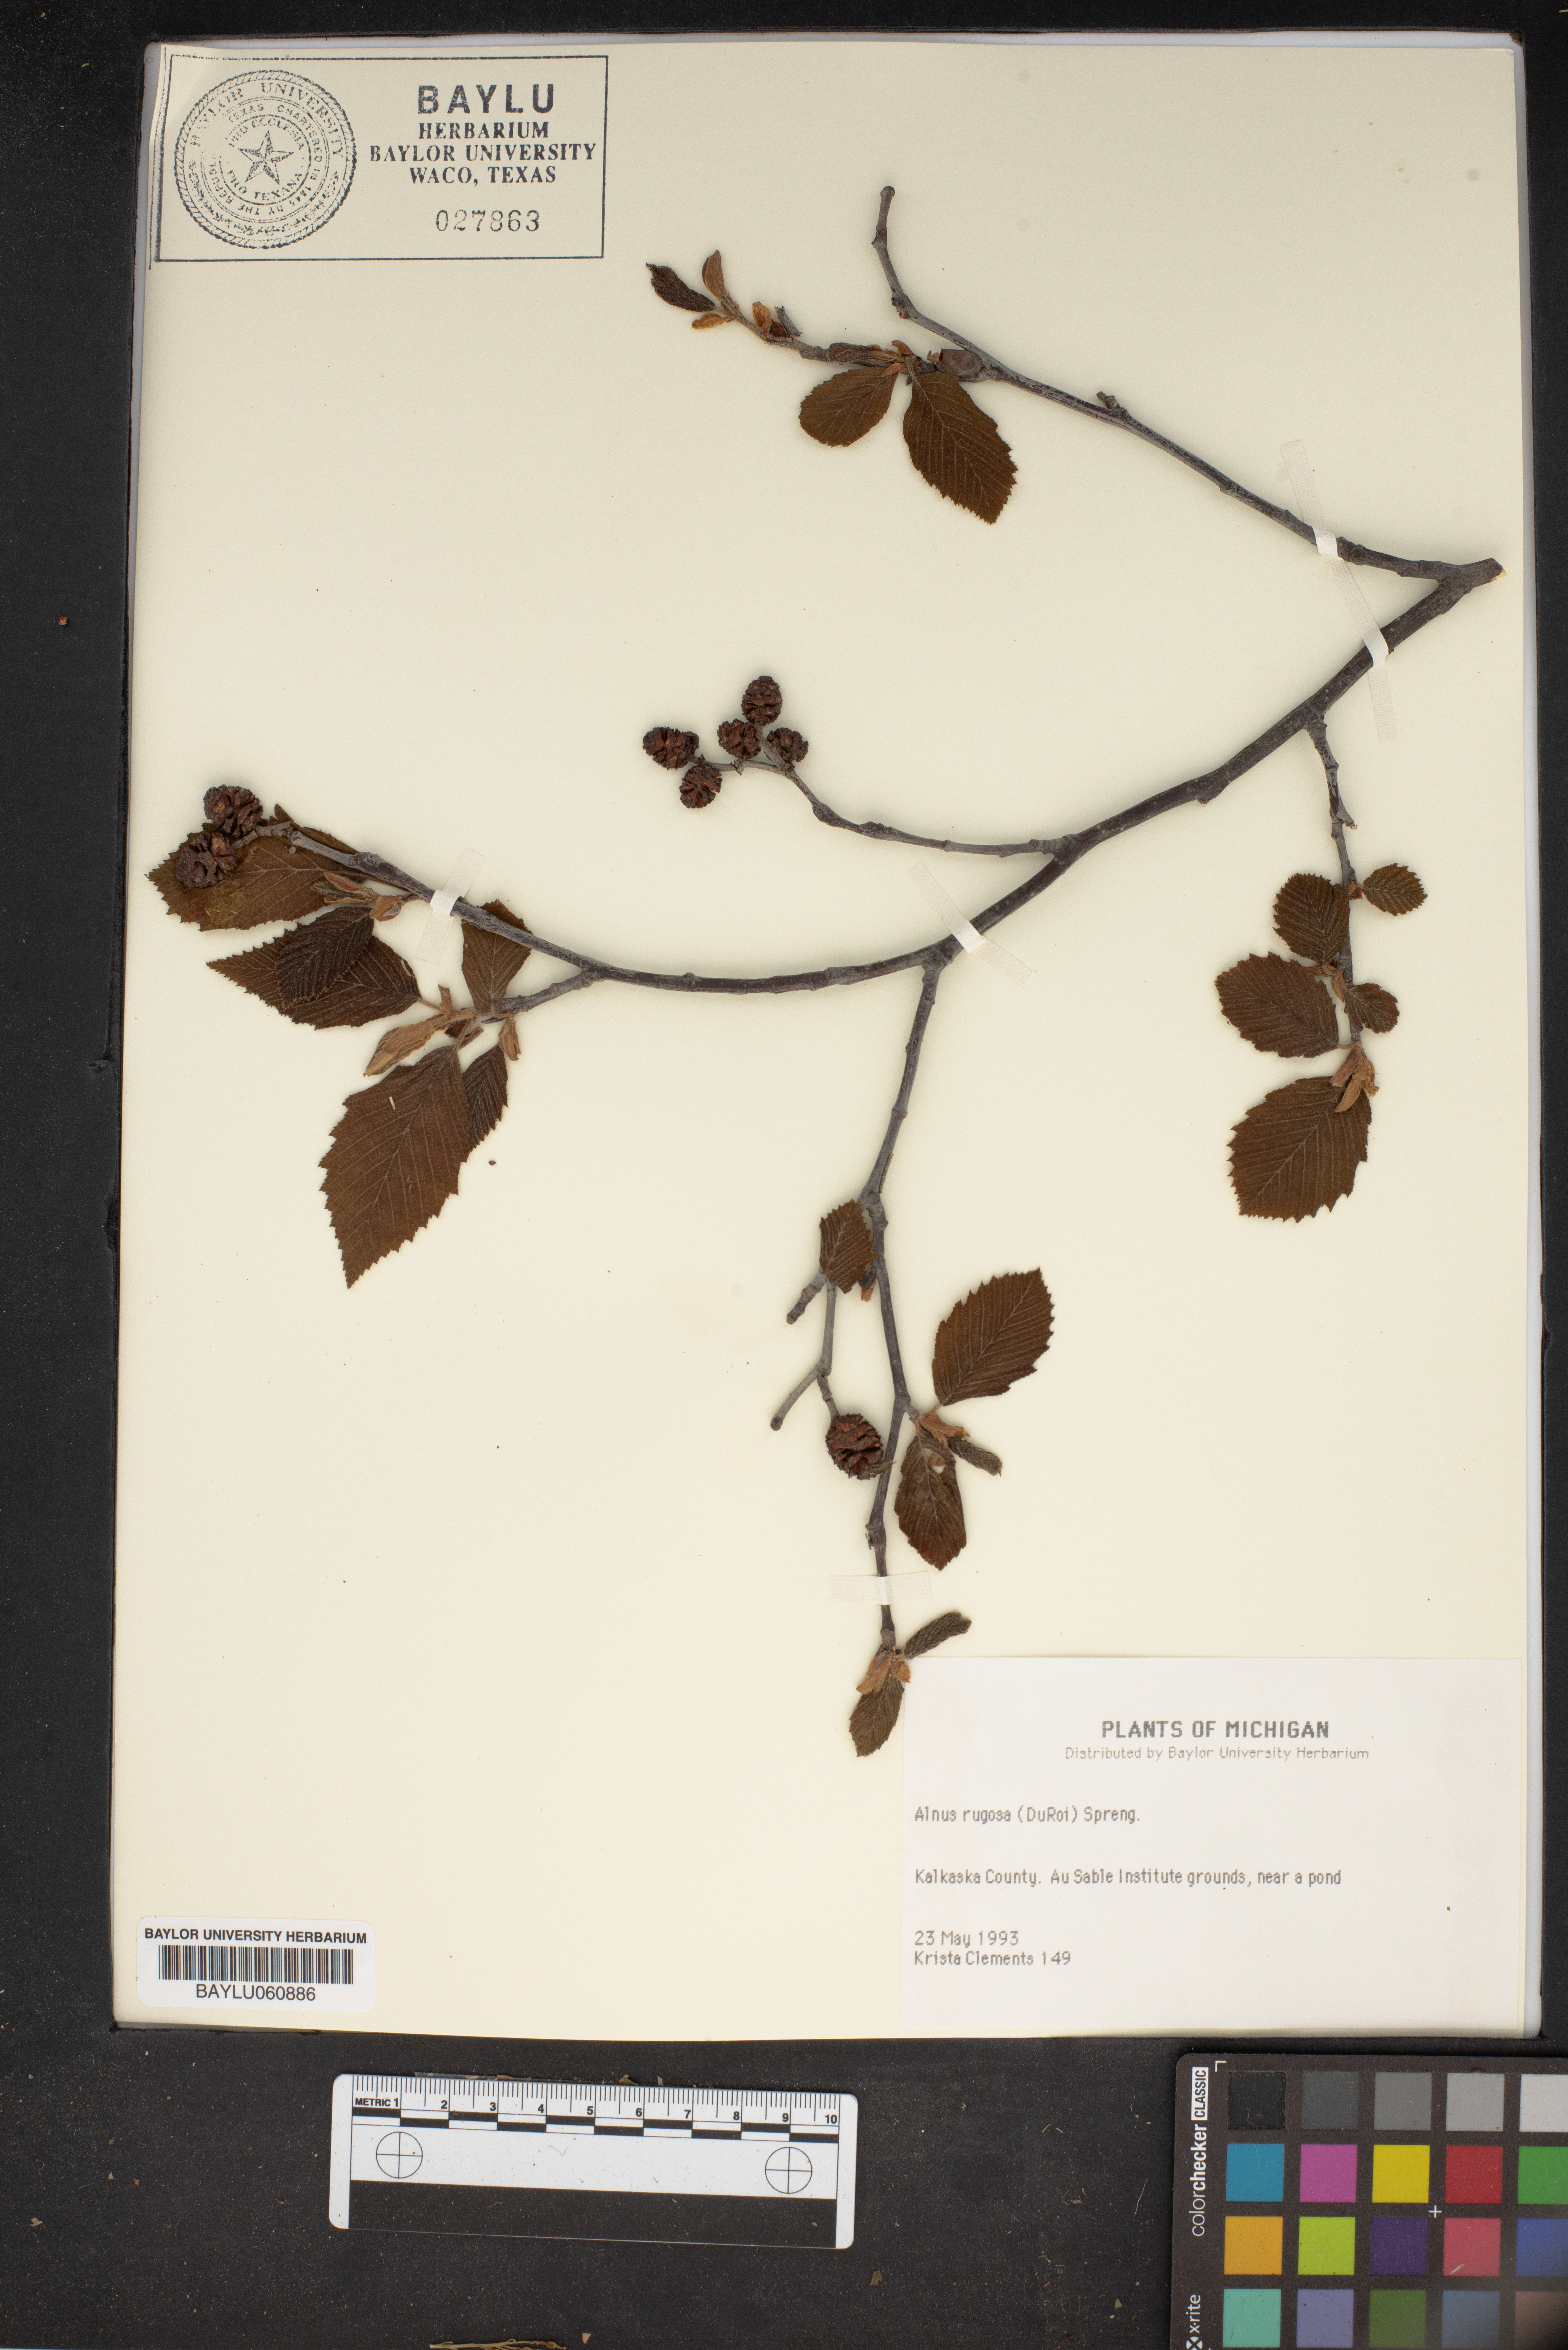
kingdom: Plantae
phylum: Tracheophyta
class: Magnoliopsida
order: Fagales
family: Betulaceae
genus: Alnus
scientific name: Alnus incana
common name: Grey alder
